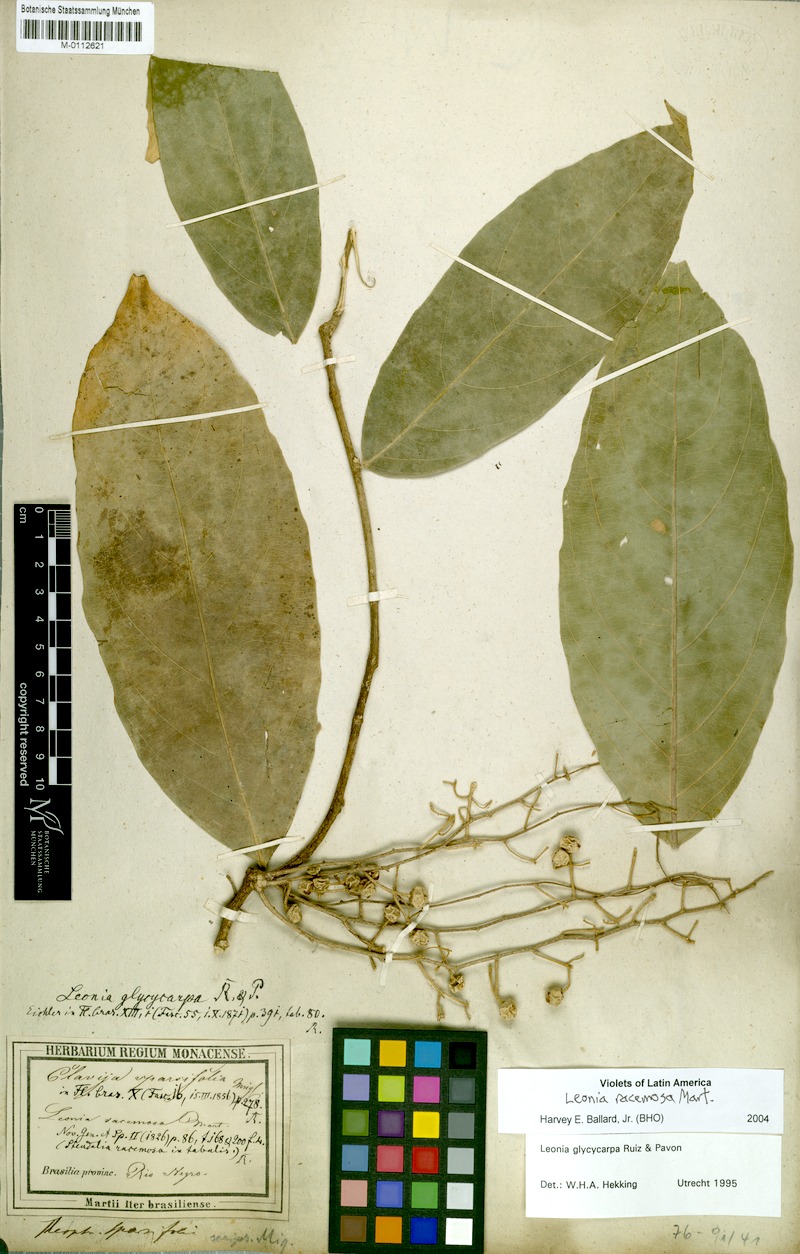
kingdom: Plantae
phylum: Tracheophyta
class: Magnoliopsida
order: Malpighiales
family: Violaceae
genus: Leonia
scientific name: Leonia racemosa
